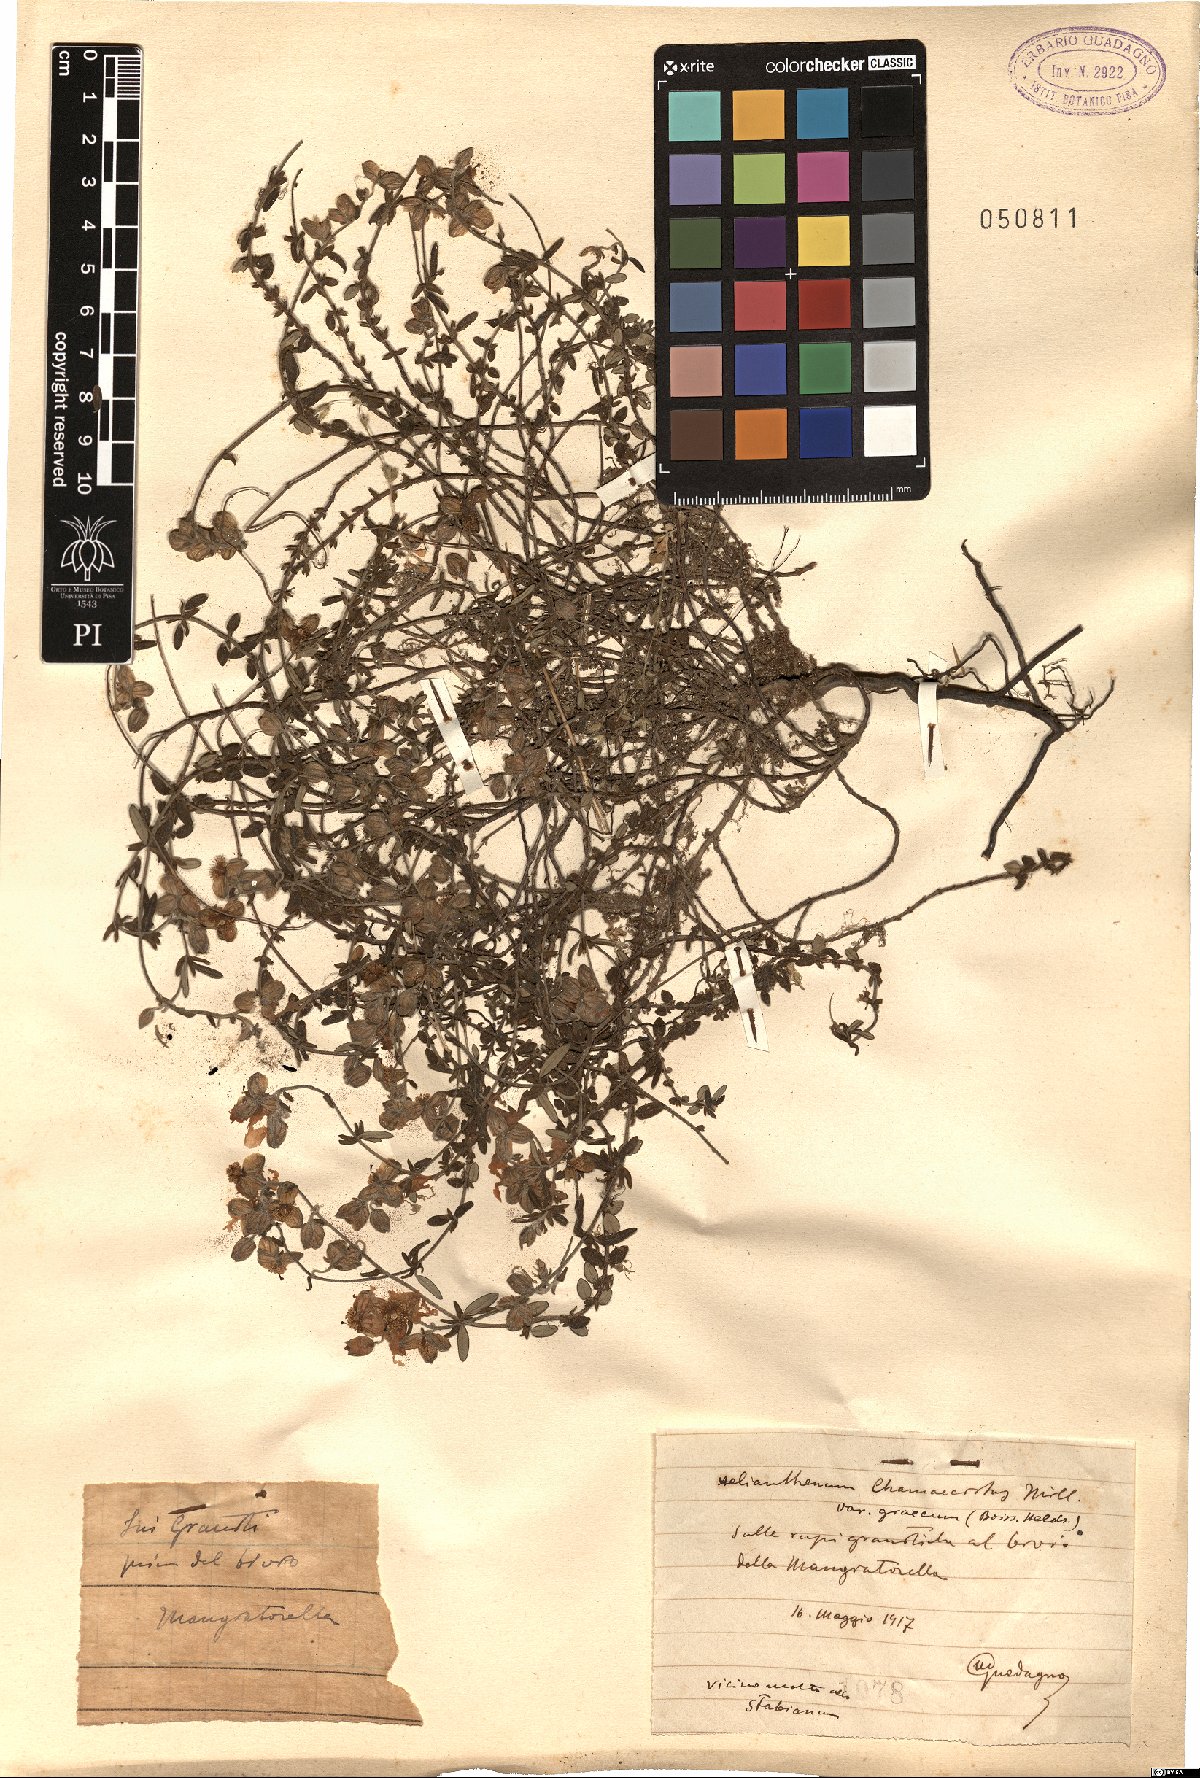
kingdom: Plantae
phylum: Tracheophyta
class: Magnoliopsida
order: Malvales
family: Cistaceae
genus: Helianthemum
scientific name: Helianthemum nummularium
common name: Common rock-rose
